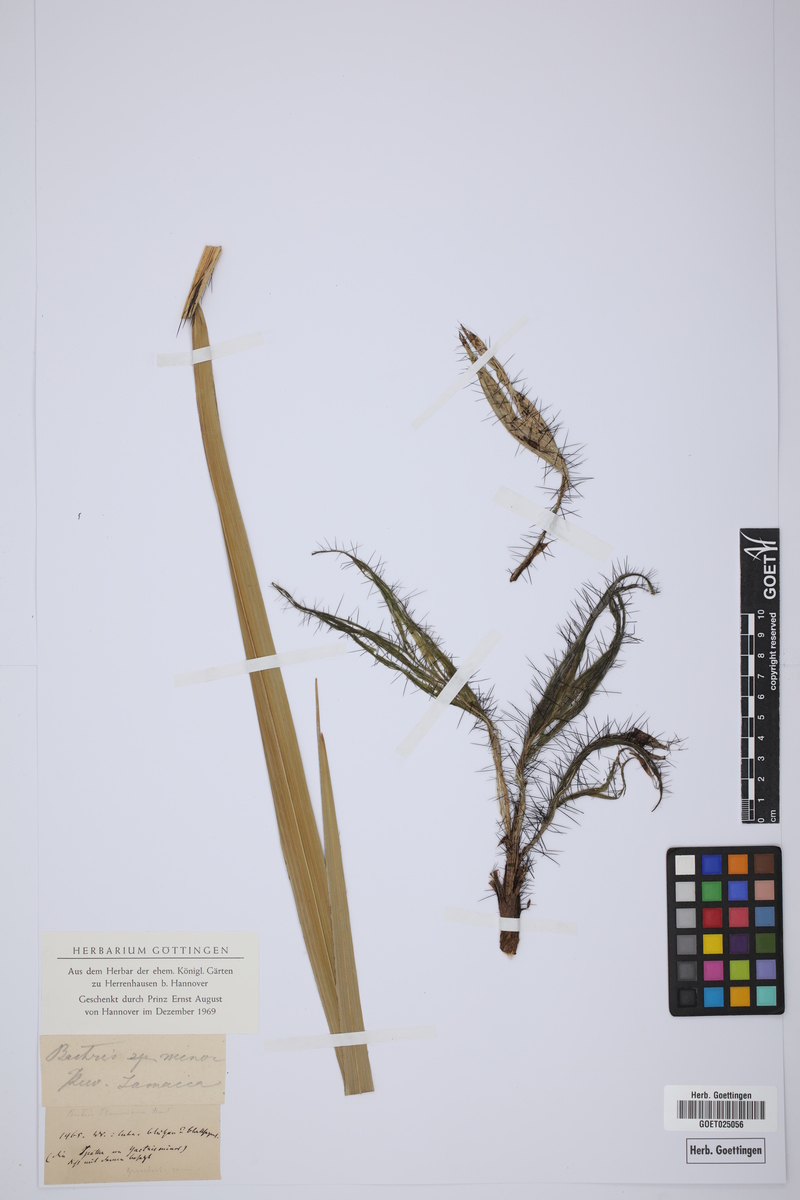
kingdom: Plantae
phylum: Tracheophyta
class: Liliopsida
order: Arecales
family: Arecaceae
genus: Bactris
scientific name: Bactris guineensis
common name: Tobago cane
